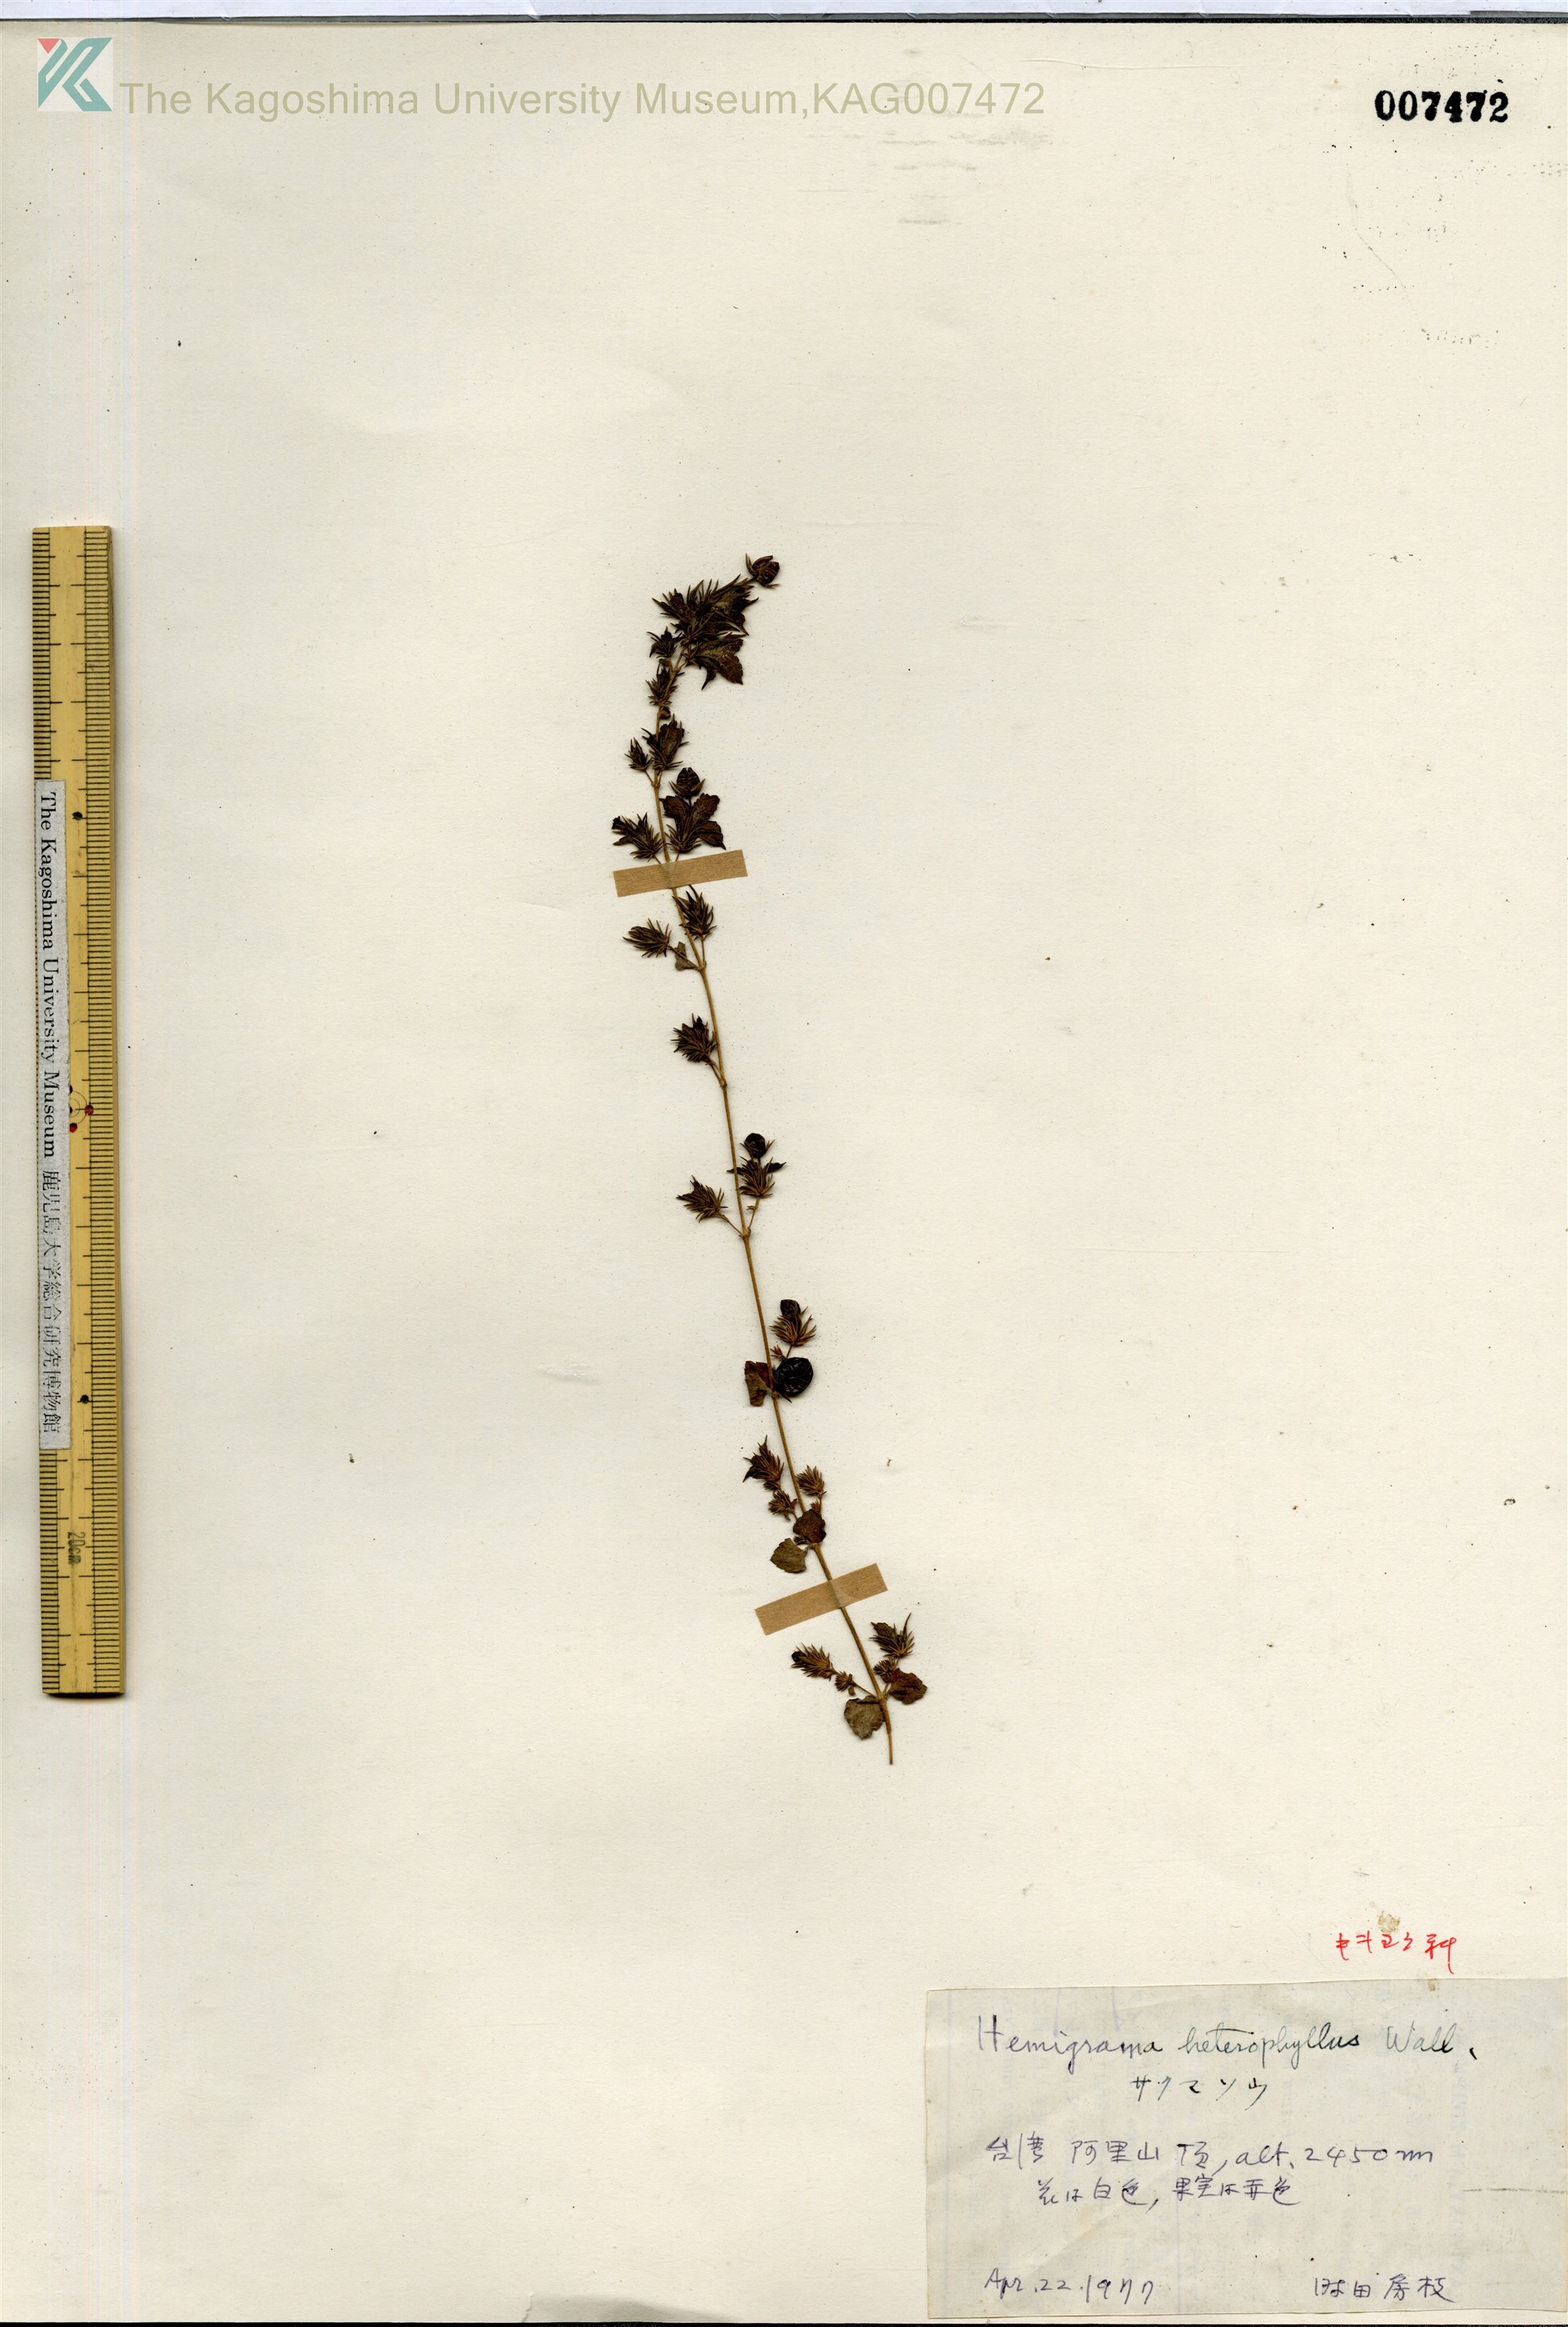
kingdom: Plantae
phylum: Tracheophyta
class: Magnoliopsida
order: Lamiales
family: Plantaginaceae
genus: Hemiphragma
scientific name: Hemiphragma heterophyllum
